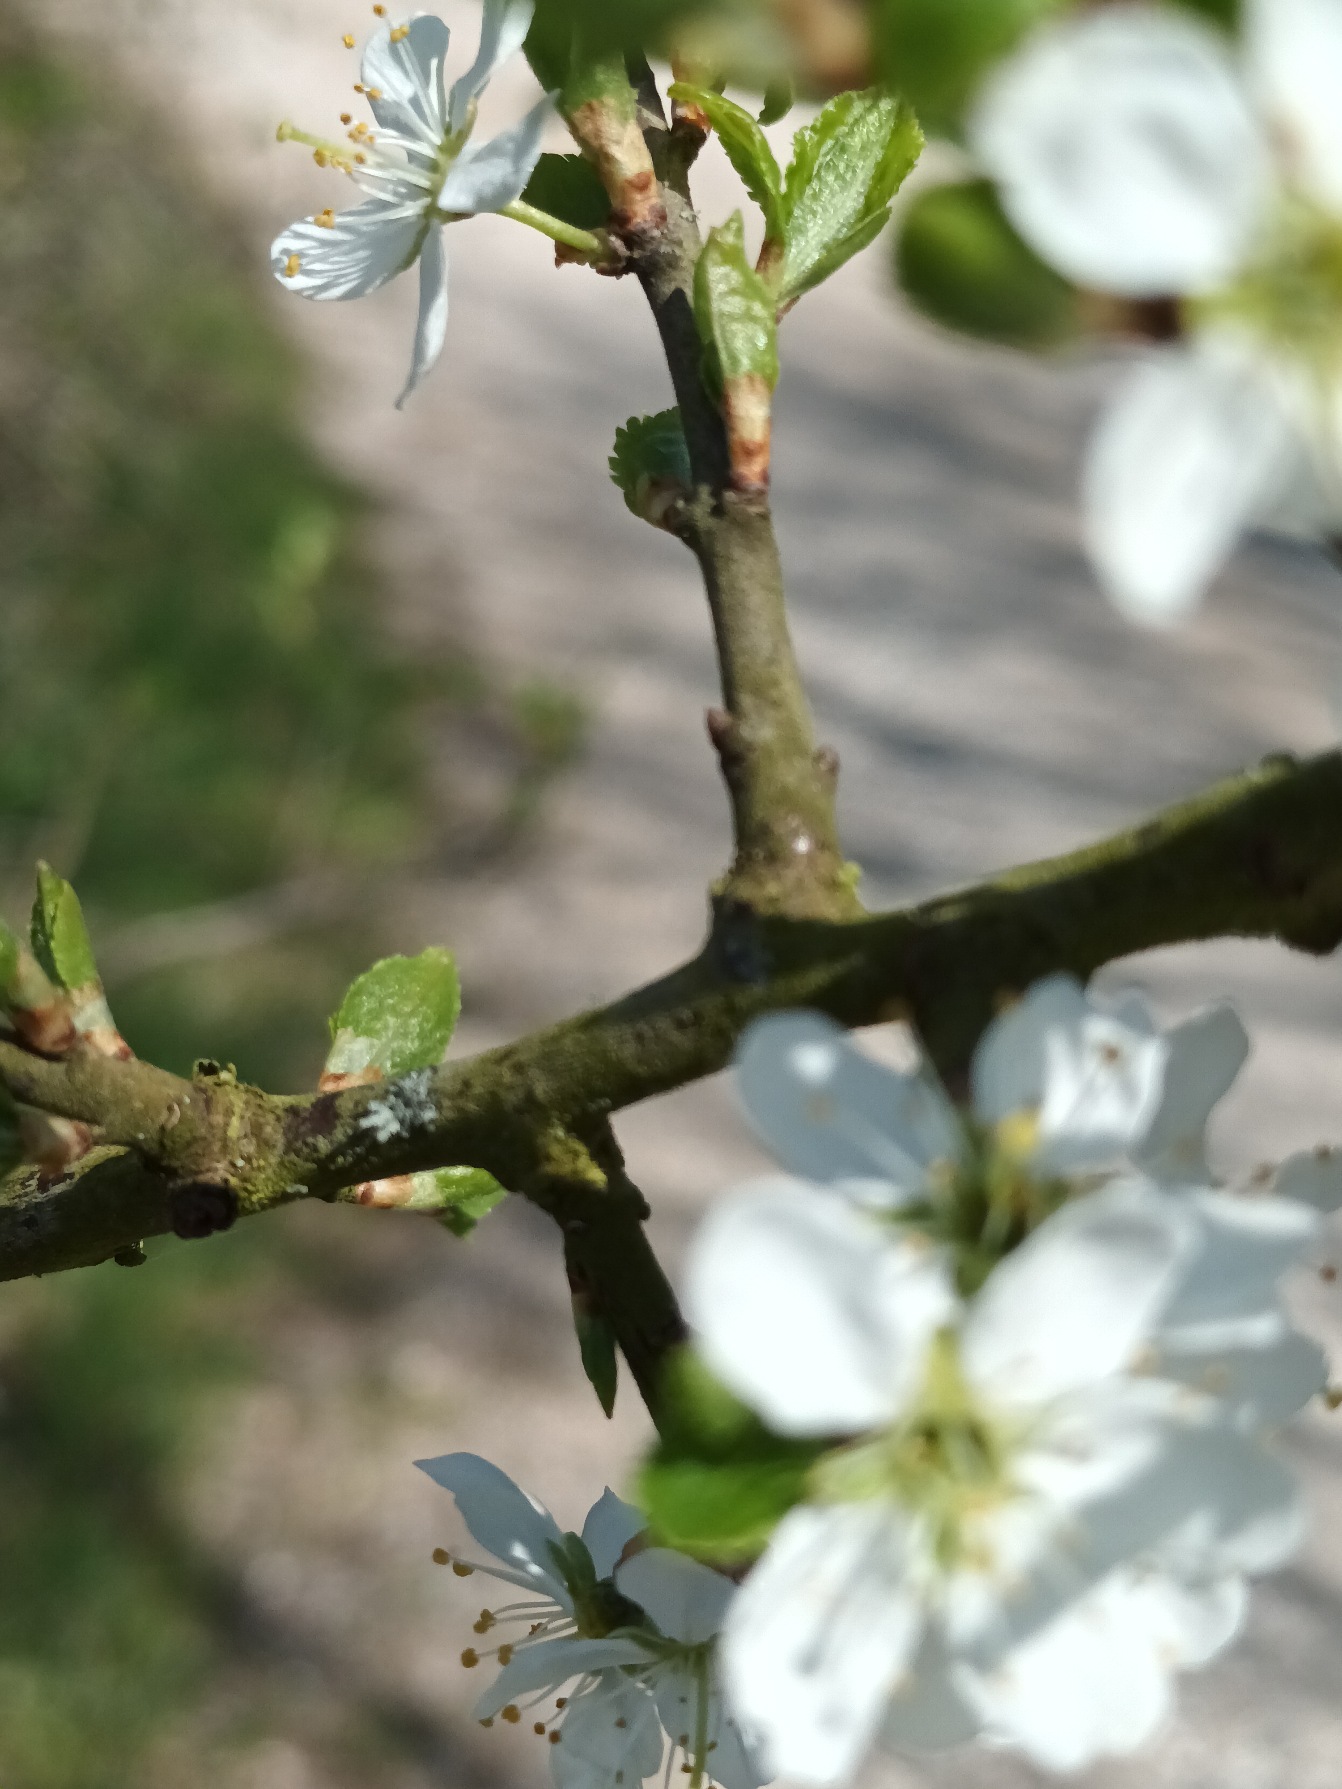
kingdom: Plantae
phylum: Tracheophyta
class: Magnoliopsida
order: Rosales
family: Rosaceae
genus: Prunus
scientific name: Prunus spinosa
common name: Slåen
